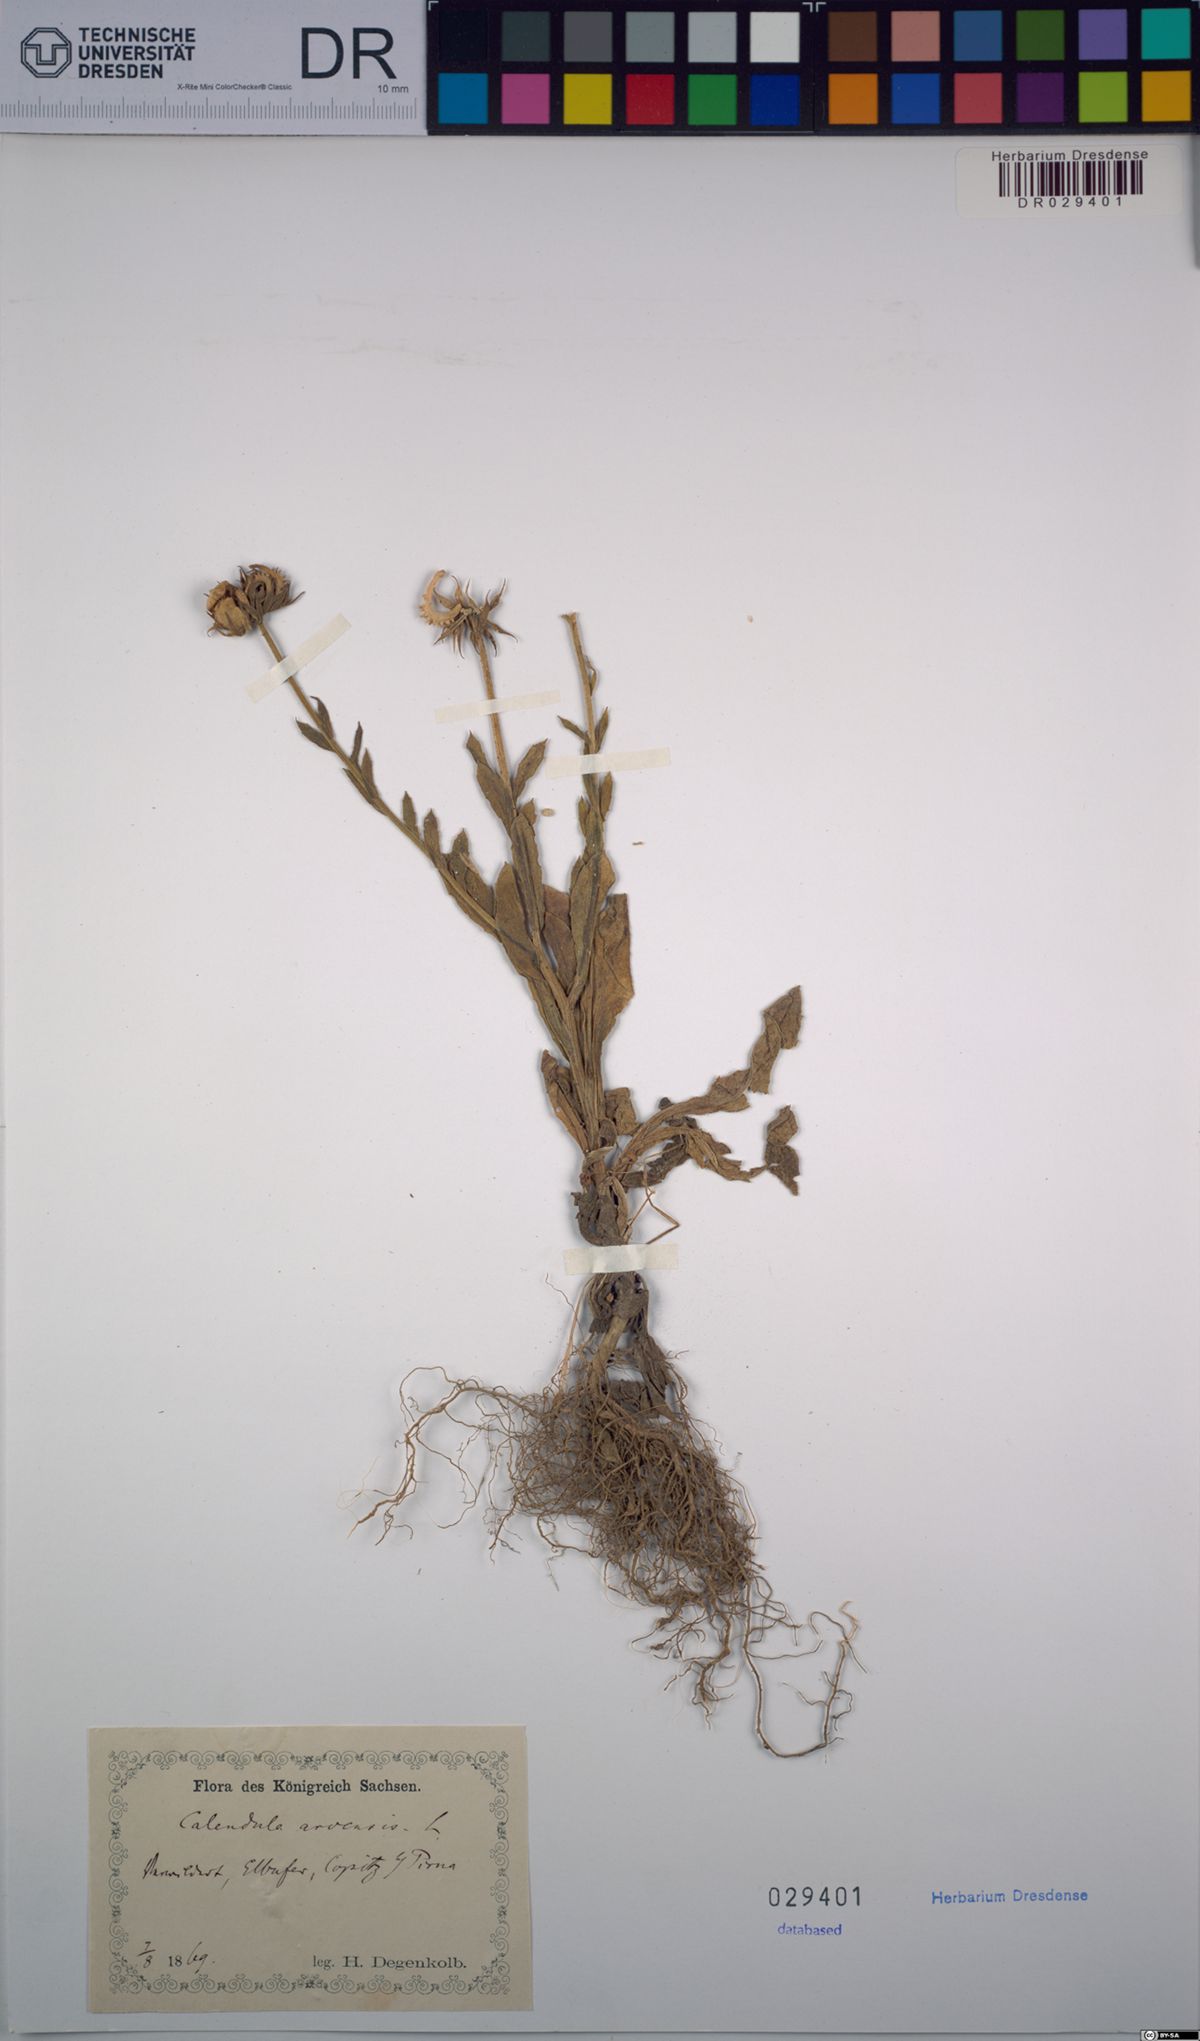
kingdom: Plantae
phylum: Tracheophyta
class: Magnoliopsida
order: Asterales
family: Asteraceae
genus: Calendula
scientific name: Calendula arvensis
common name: Field marigold
